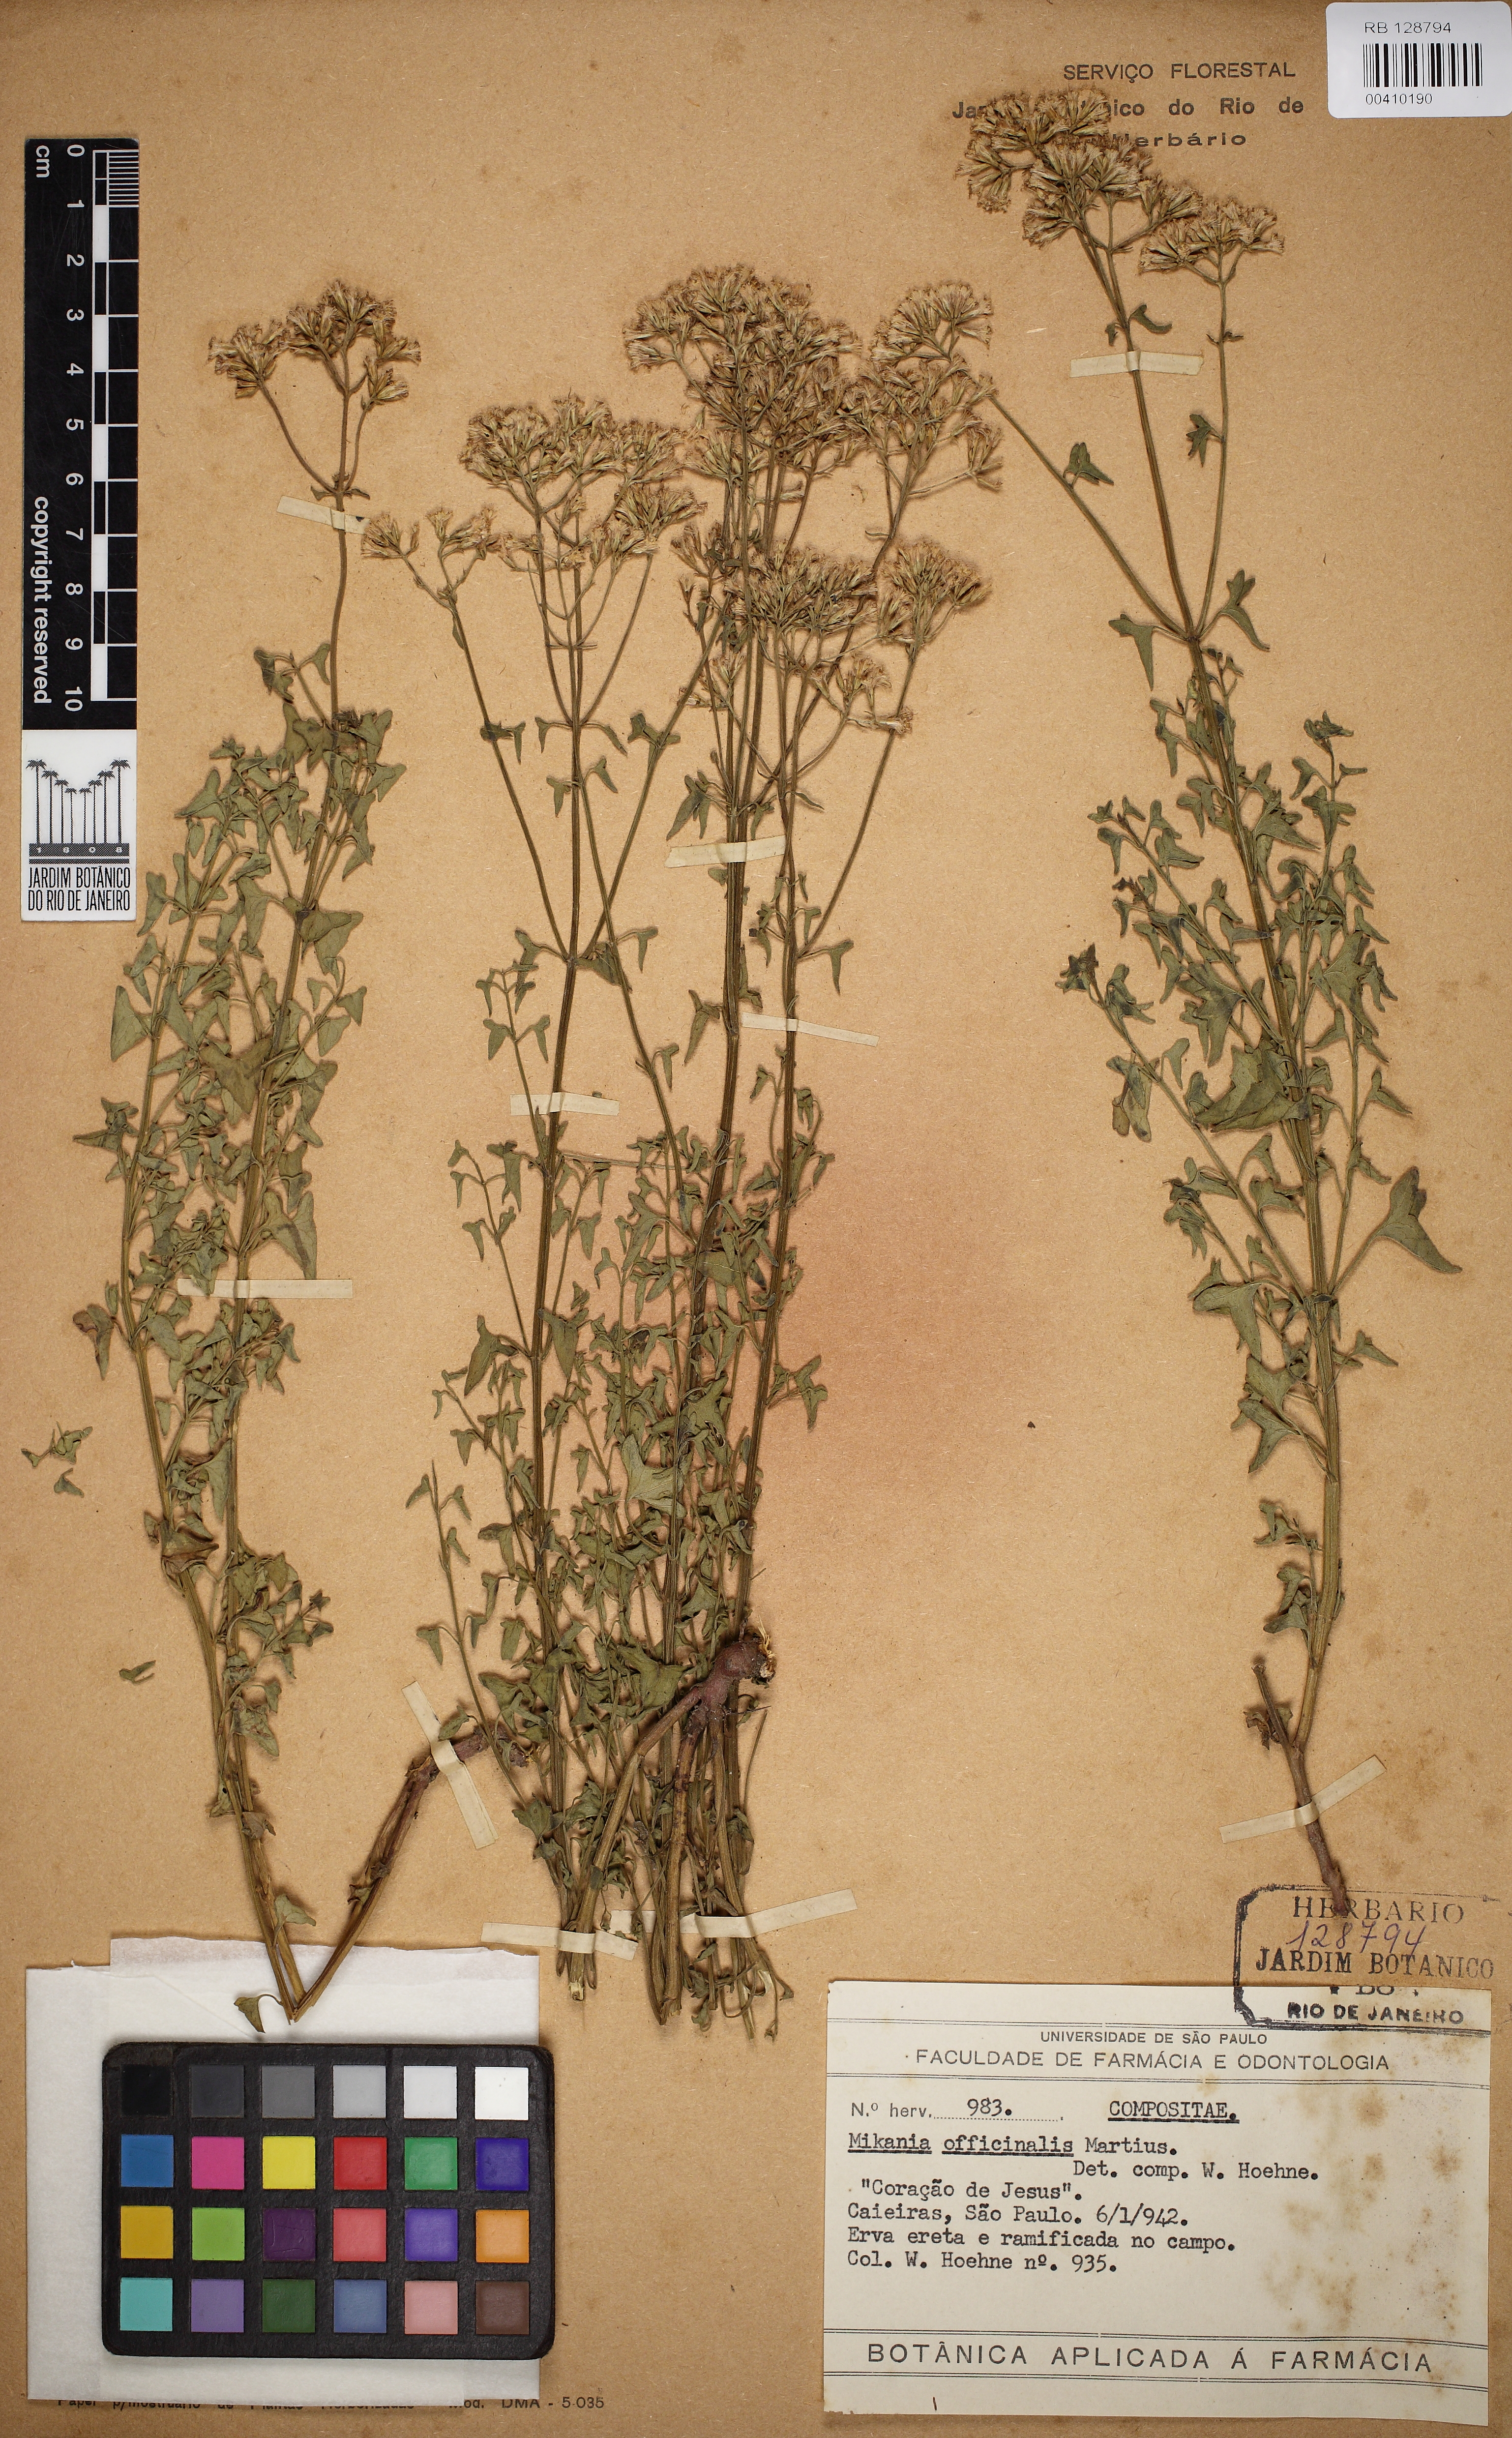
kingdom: Plantae
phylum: Tracheophyta
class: Magnoliopsida
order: Asterales
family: Asteraceae
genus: Mikania
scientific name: Mikania officinalis
